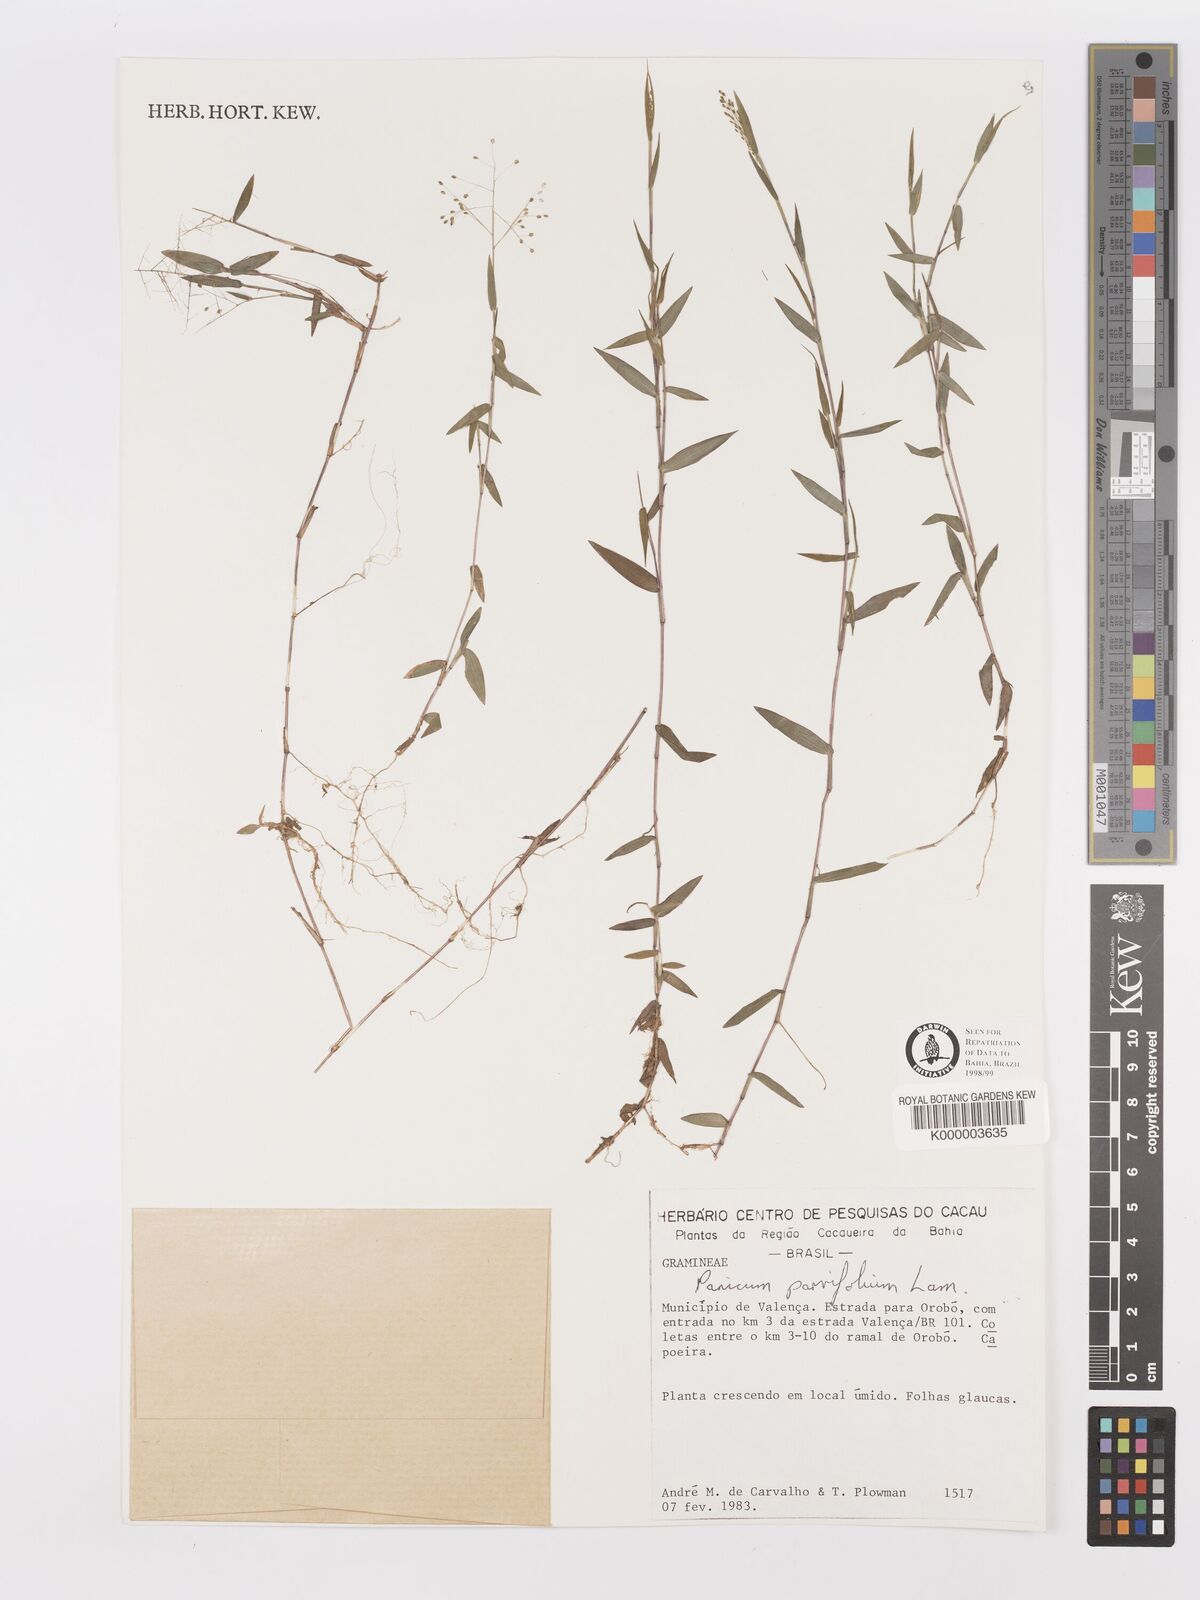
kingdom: Plantae
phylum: Tracheophyta
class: Liliopsida
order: Poales
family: Poaceae
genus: Trichanthecium
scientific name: Trichanthecium parvifolium
